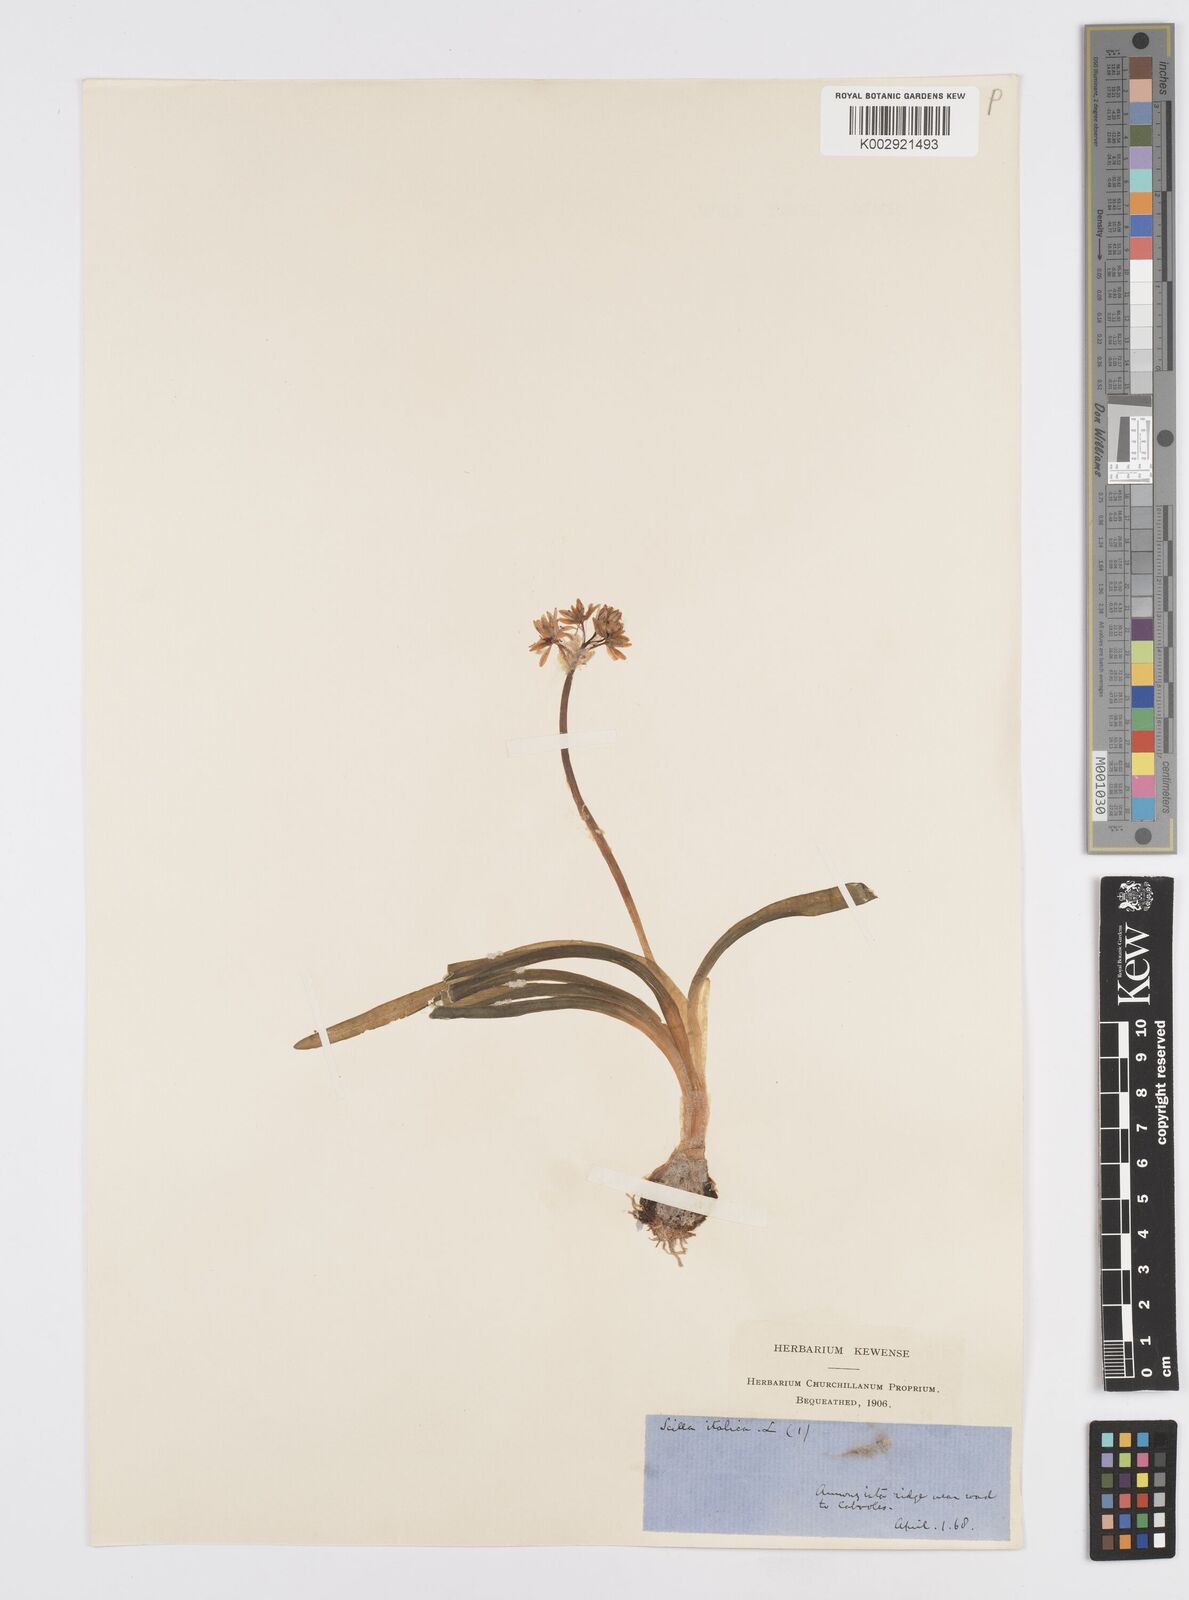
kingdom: Plantae
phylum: Tracheophyta
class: Liliopsida
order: Asparagales
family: Asparagaceae
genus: Hyacinthoides
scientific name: Hyacinthoides italica
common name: Italian bluebell
